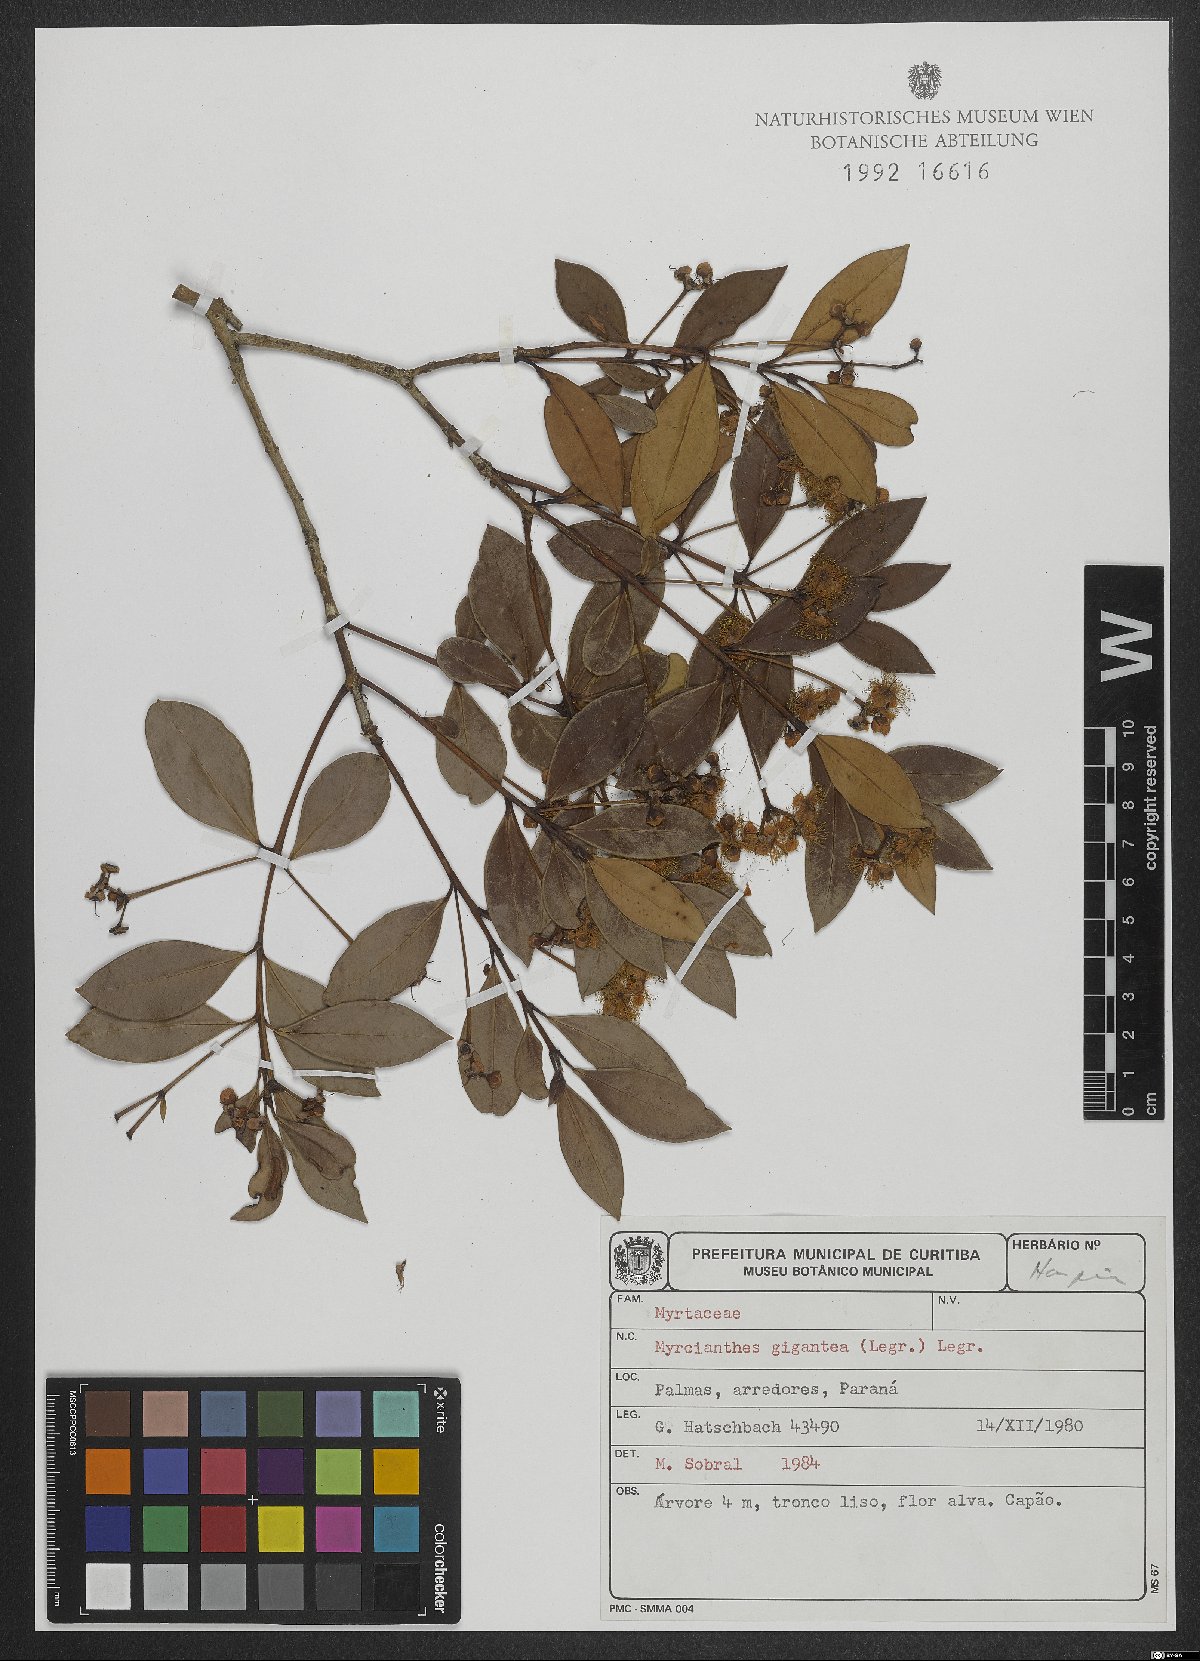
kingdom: Plantae
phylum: Tracheophyta
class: Magnoliopsida
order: Myrtales
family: Myrtaceae
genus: Myrcianthes
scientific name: Myrcianthes gigantea
